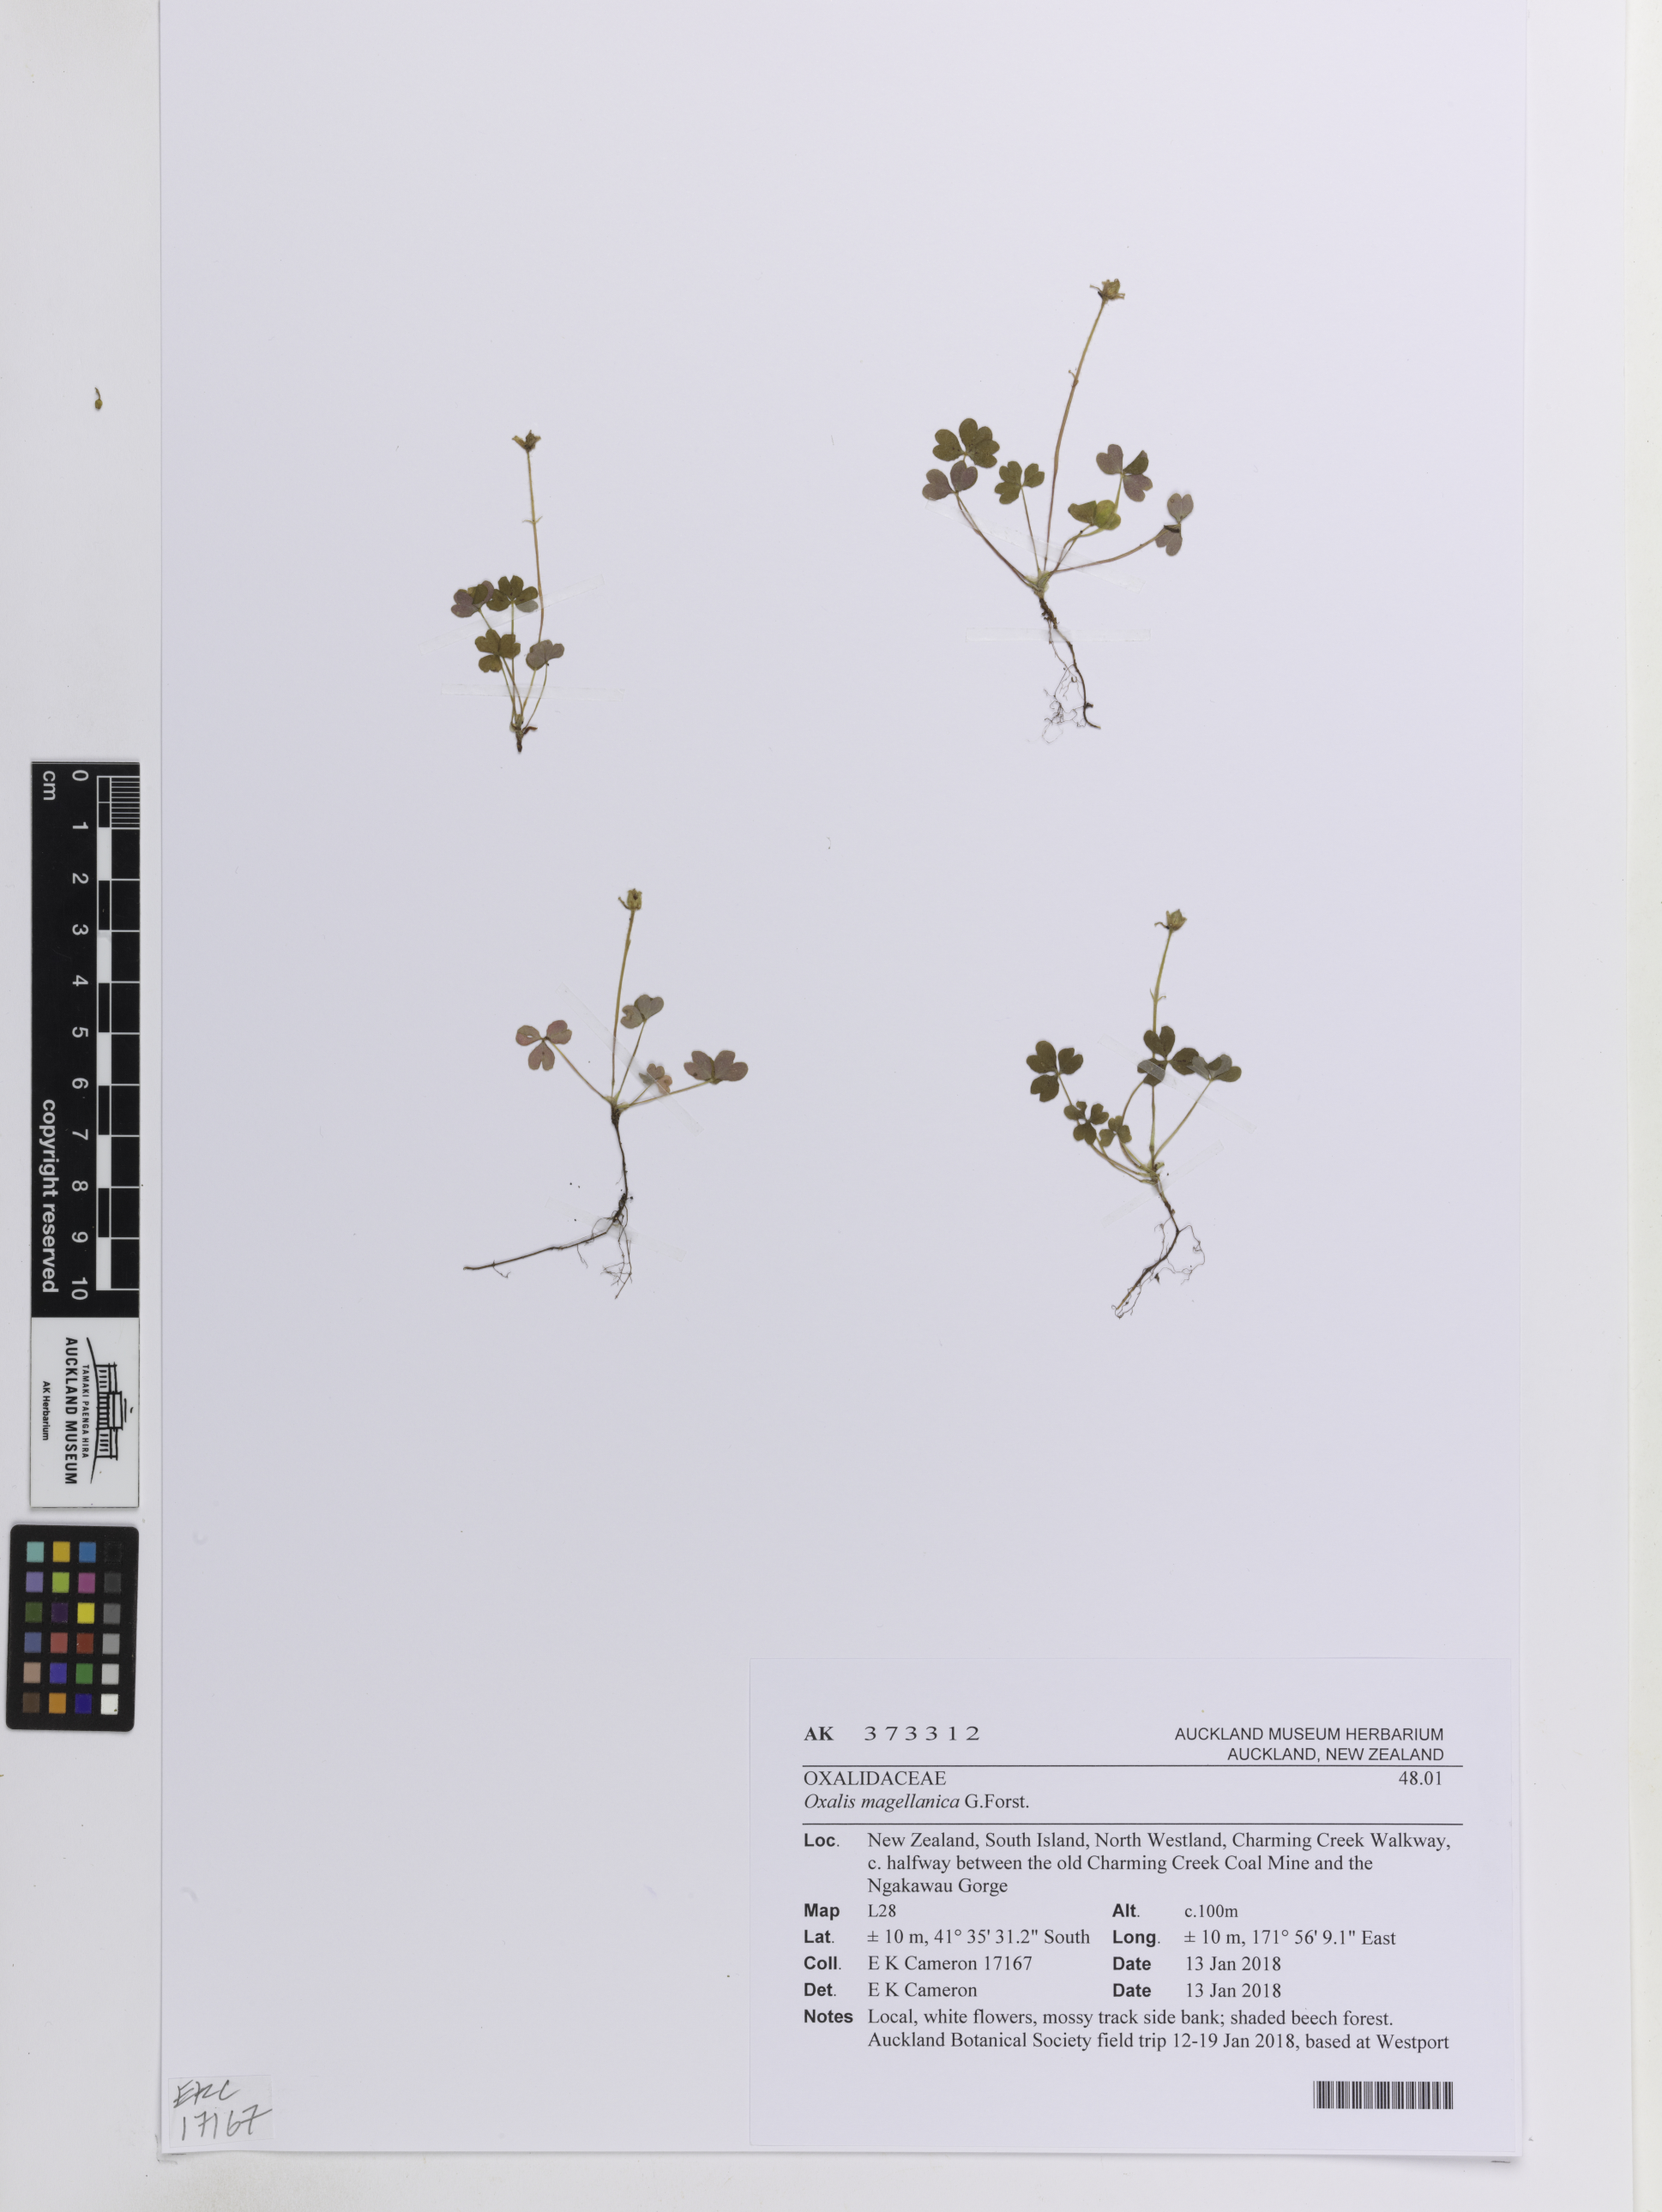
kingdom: Plantae
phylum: Tracheophyta
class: Magnoliopsida
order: Oxalidales
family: Oxalidaceae
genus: Oxalis
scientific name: Oxalis magellanica
